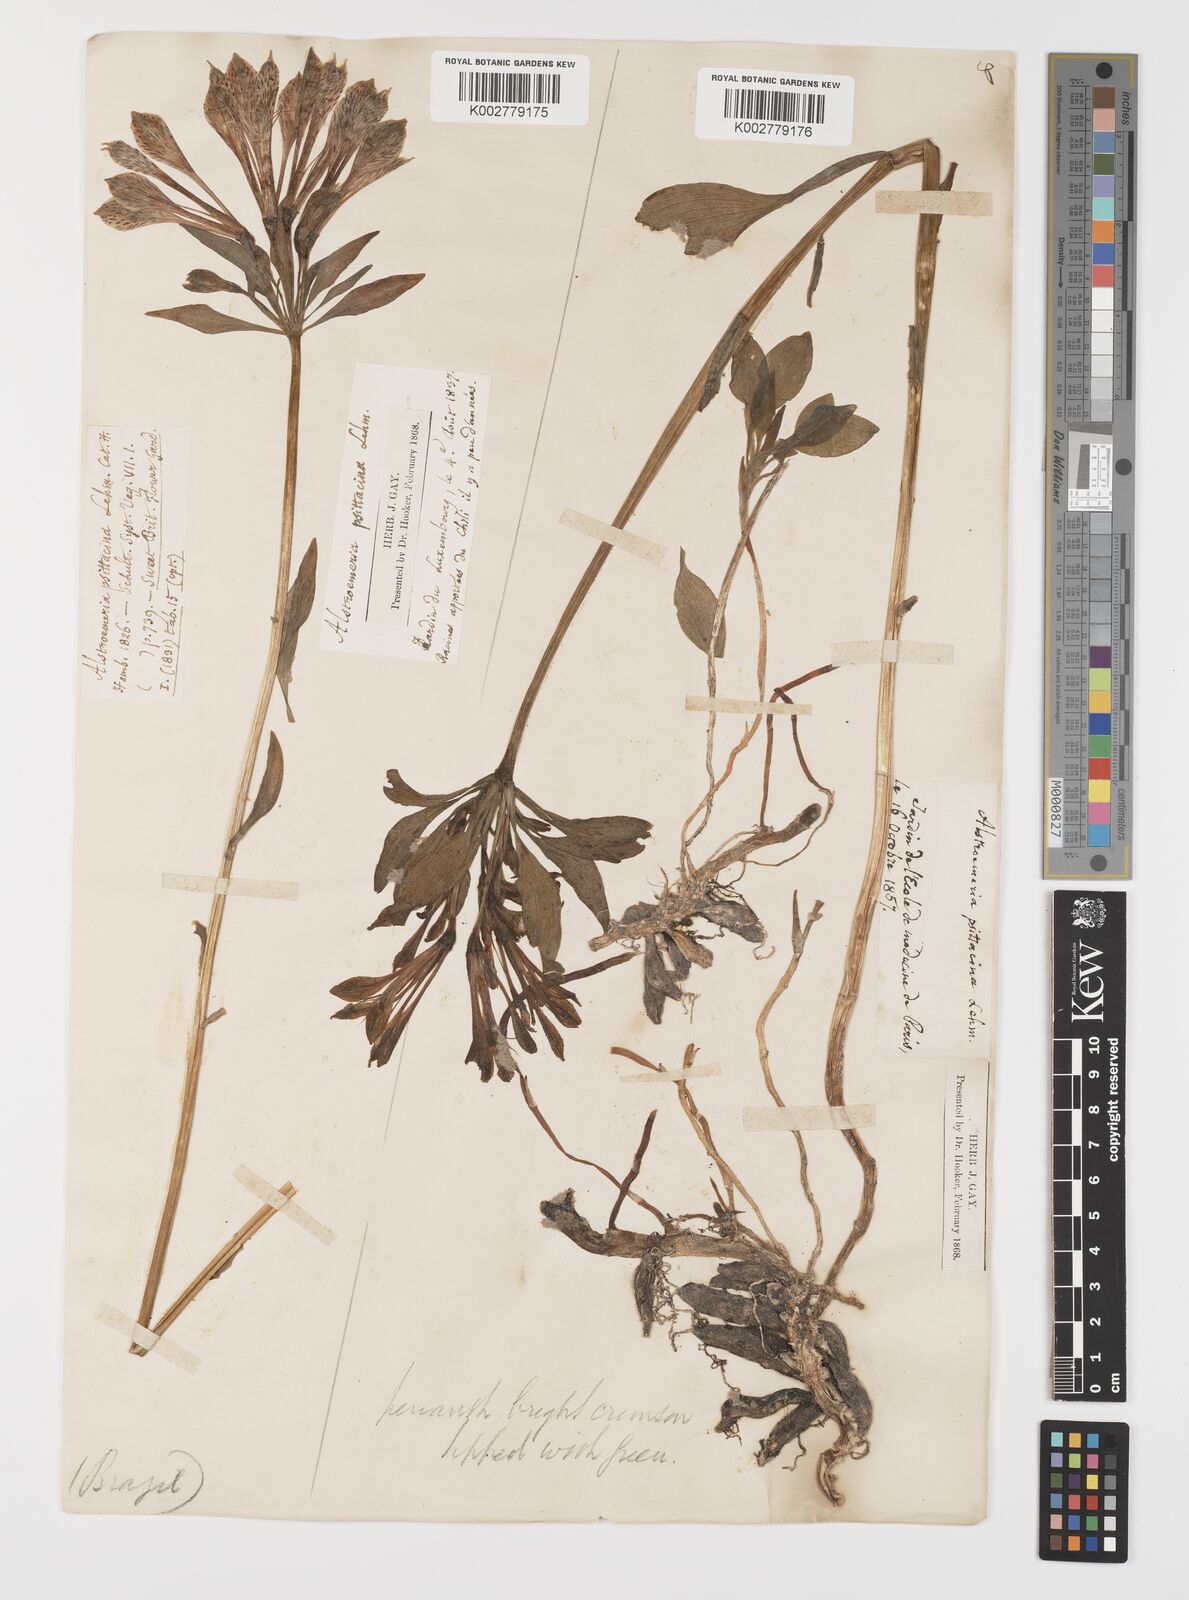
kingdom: Plantae
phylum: Tracheophyta
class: Liliopsida
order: Liliales
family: Alstroemeriaceae
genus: Alstroemeria
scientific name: Alstroemeria pelegrina
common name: Peruvian-lily
